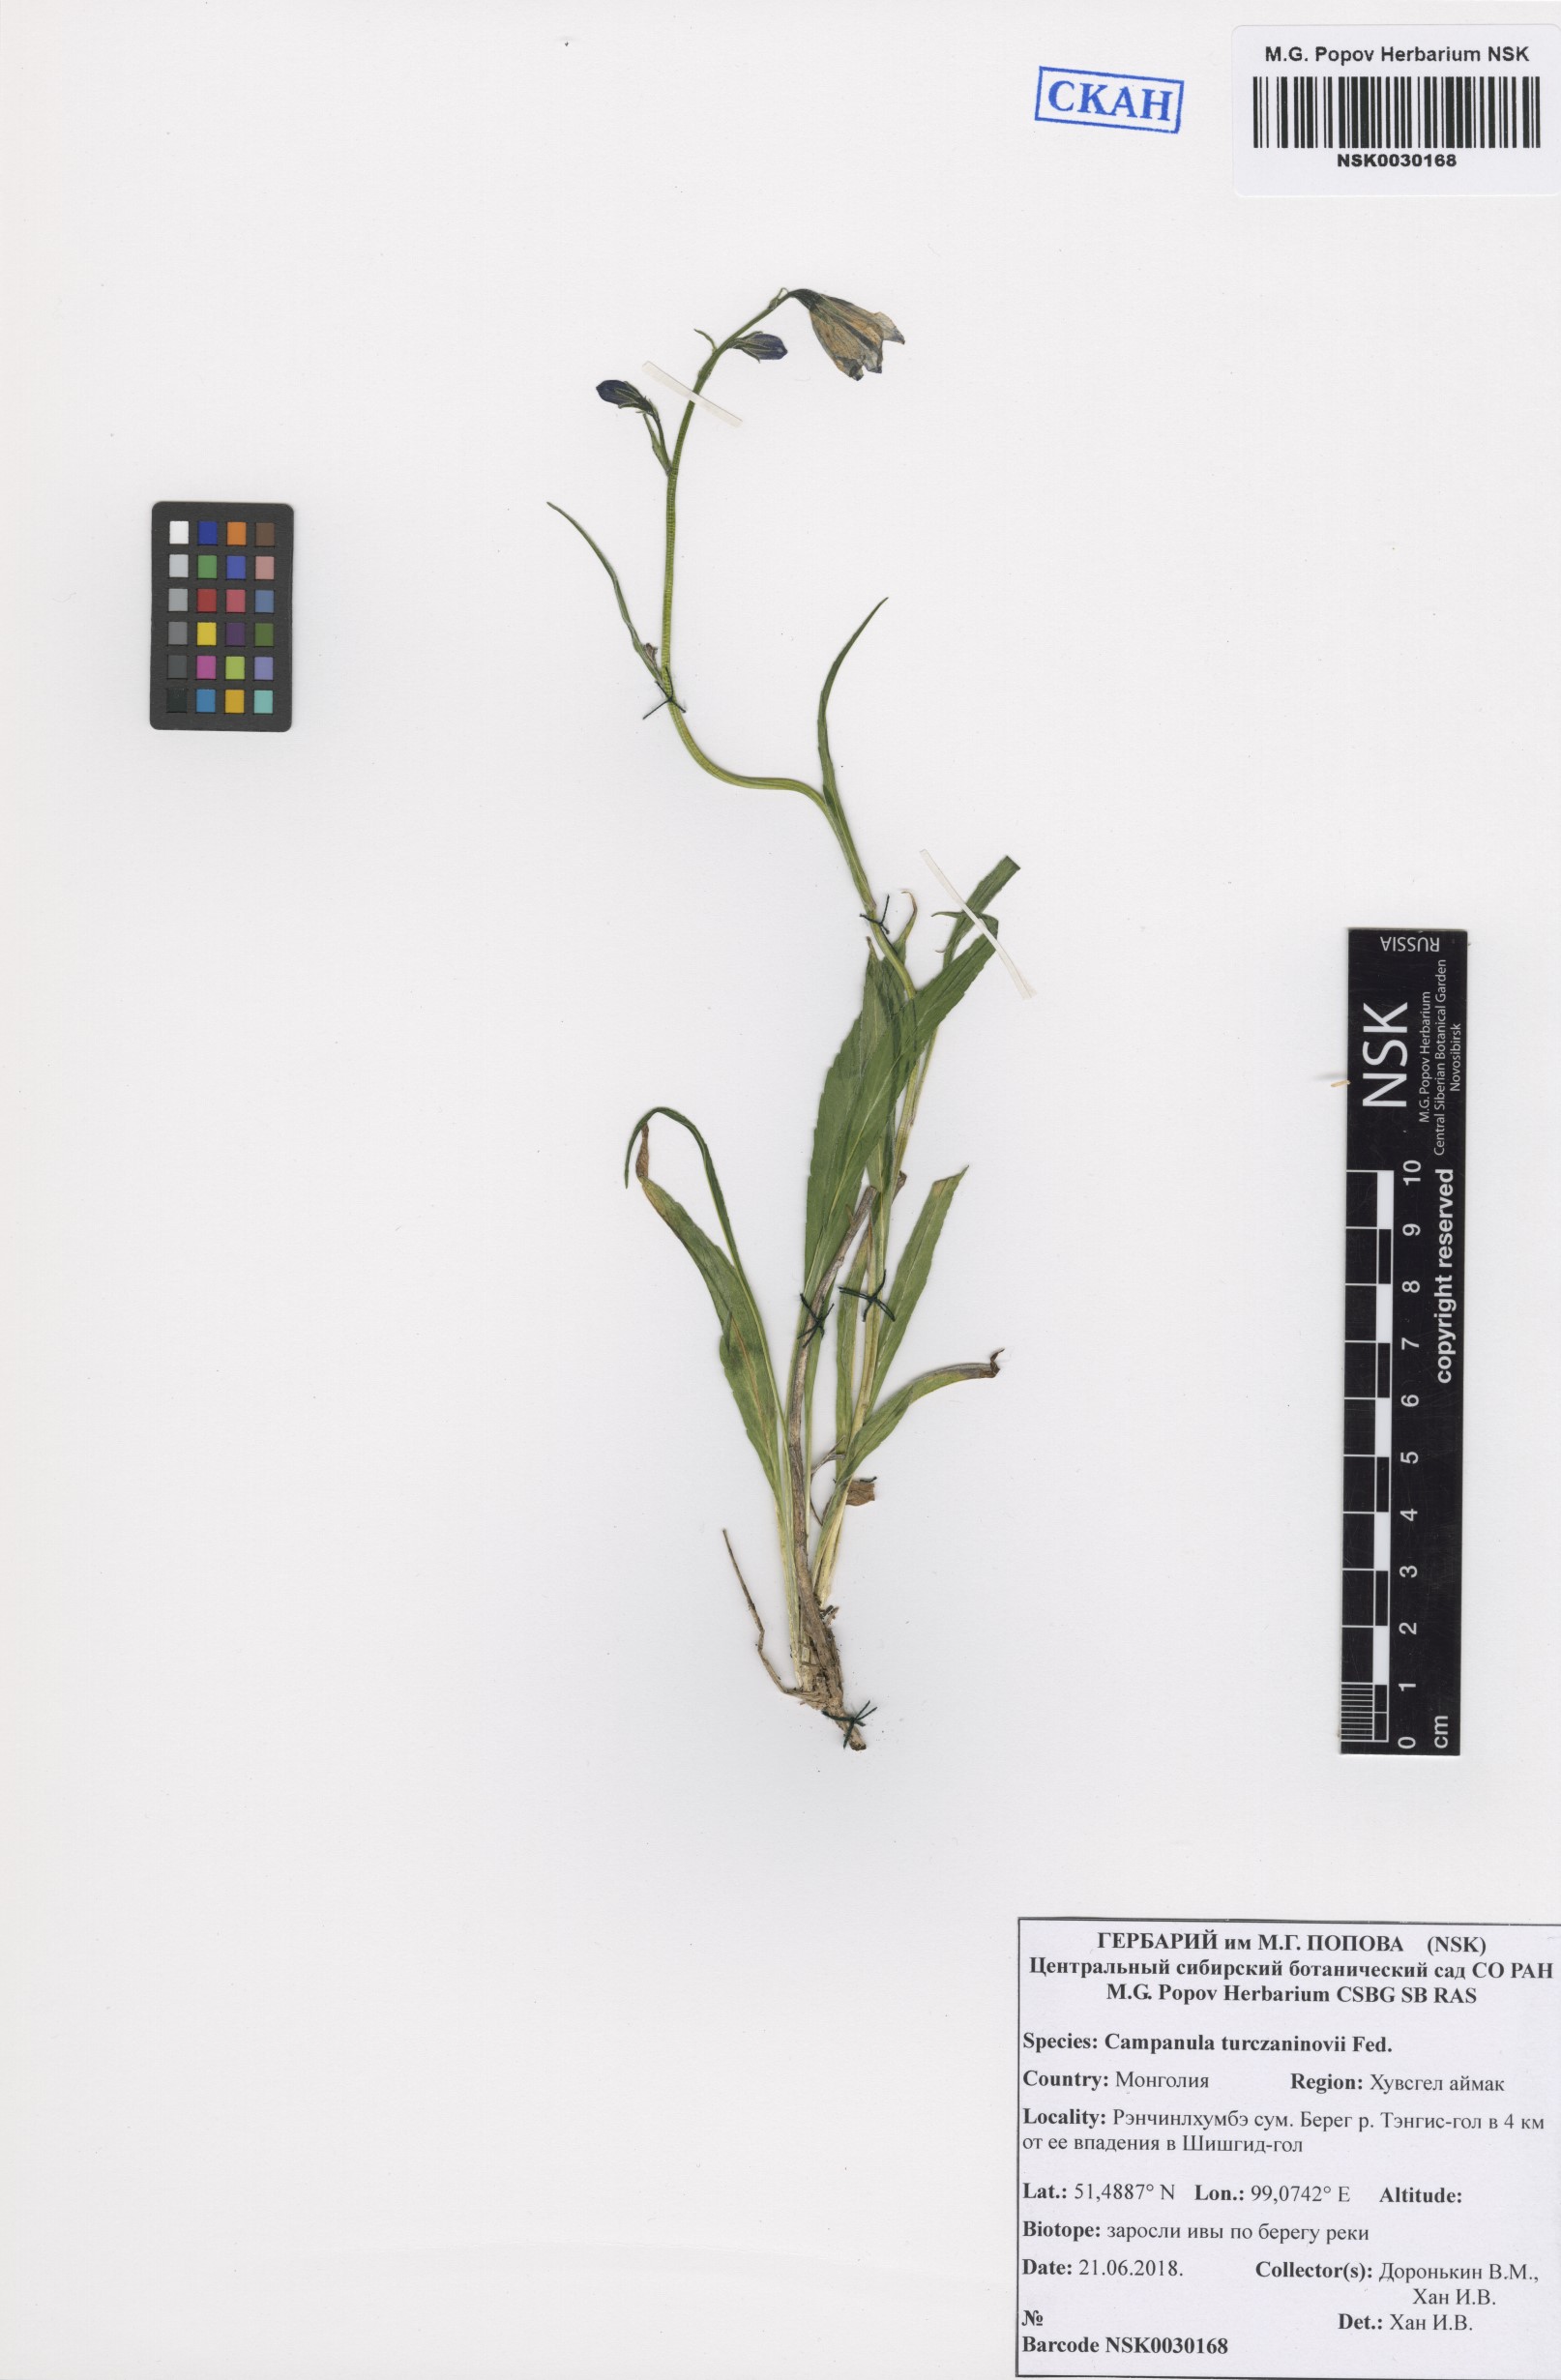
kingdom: Plantae
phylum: Tracheophyta
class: Magnoliopsida
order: Asterales
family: Campanulaceae
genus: Campanula
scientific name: Campanula stevenii
